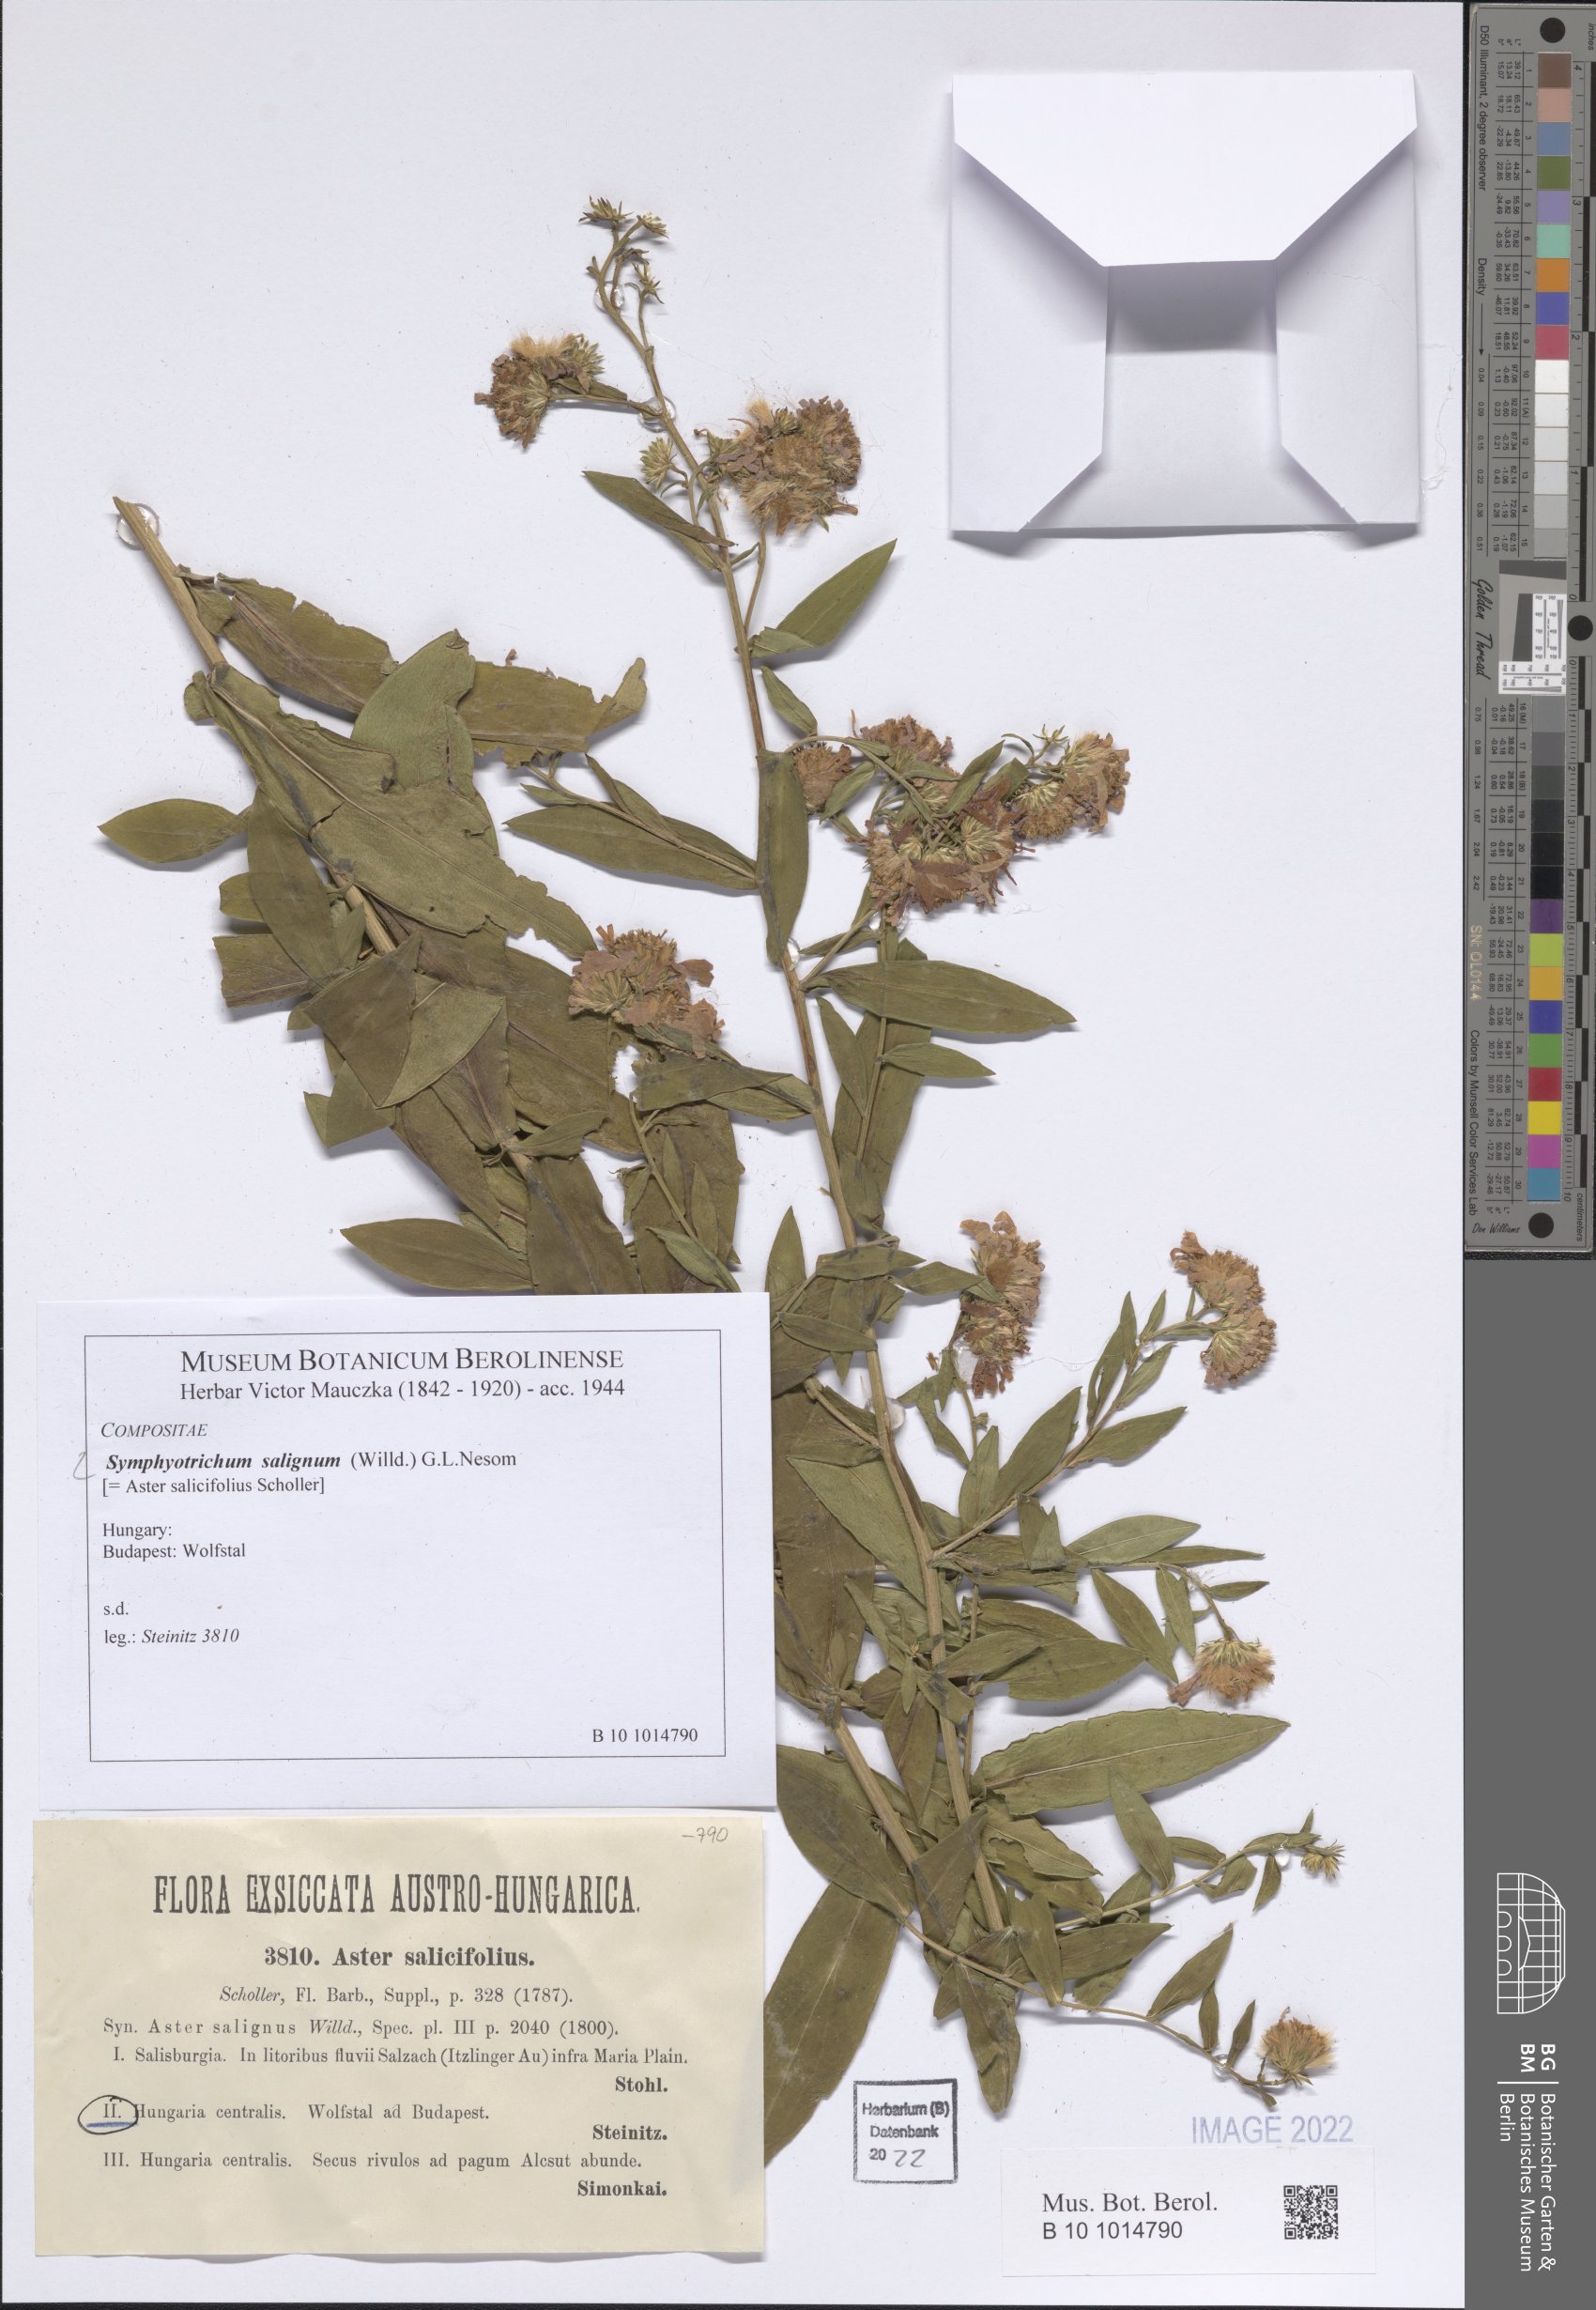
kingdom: Plantae
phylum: Tracheophyta
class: Magnoliopsida
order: Asterales
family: Asteraceae
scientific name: Asteraceae
